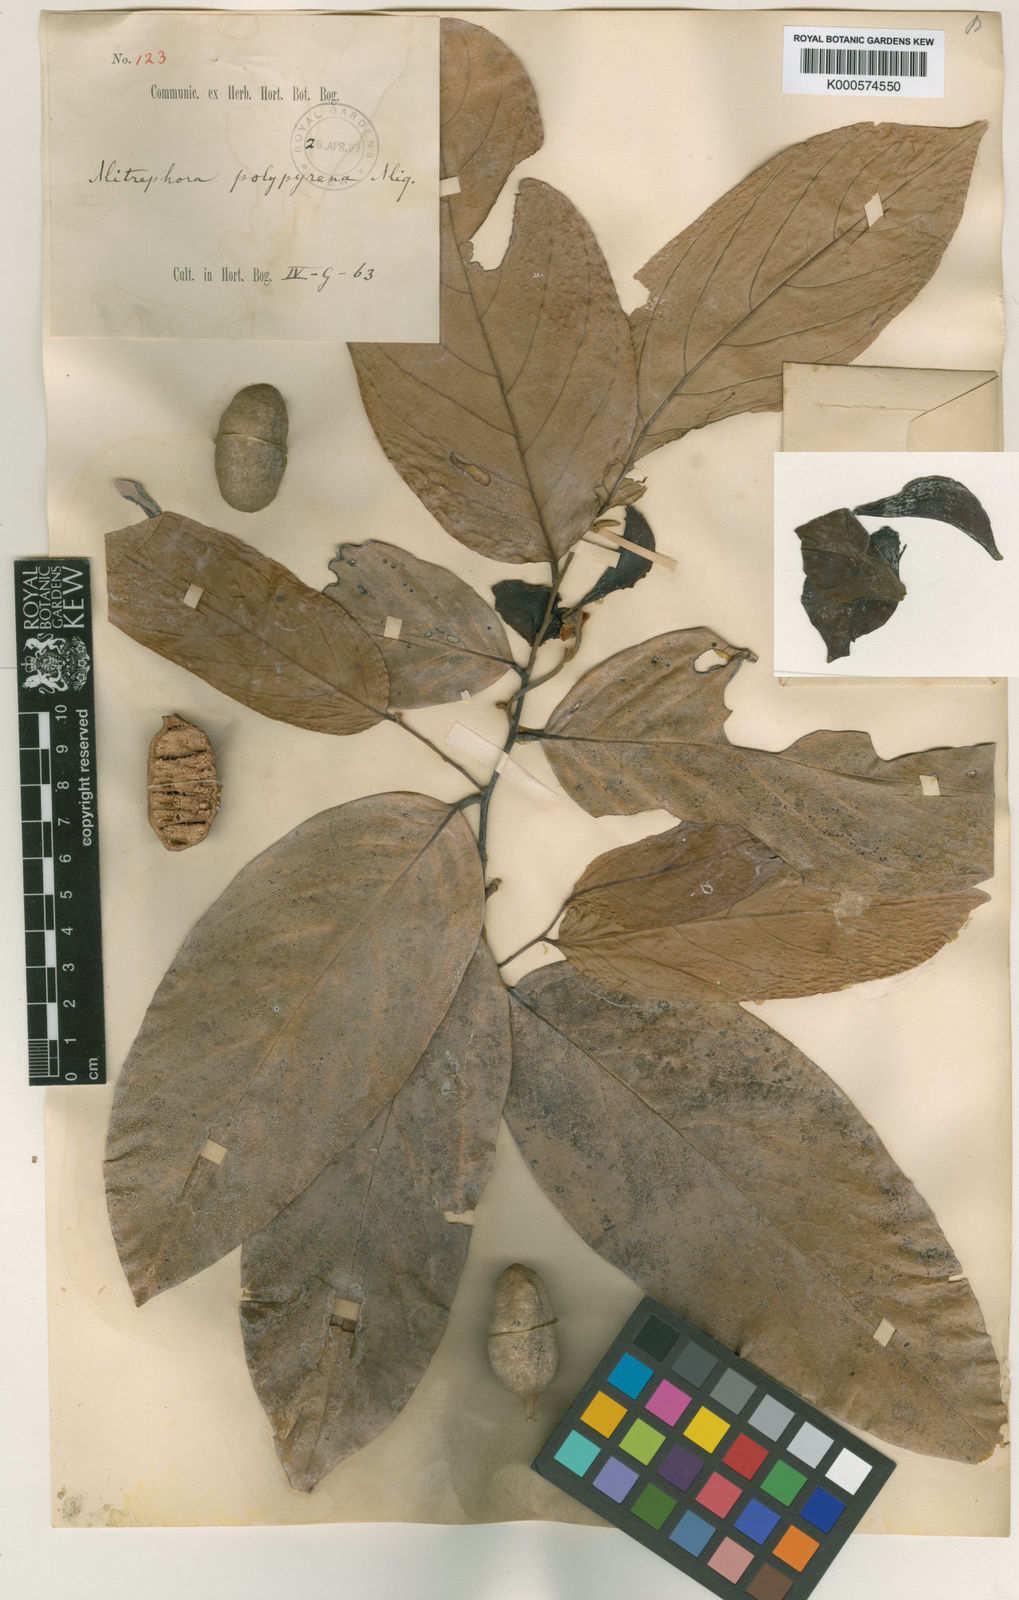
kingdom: Plantae
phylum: Tracheophyta
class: Magnoliopsida
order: Magnoliales
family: Annonaceae
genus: Mitrephora
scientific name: Mitrephora
